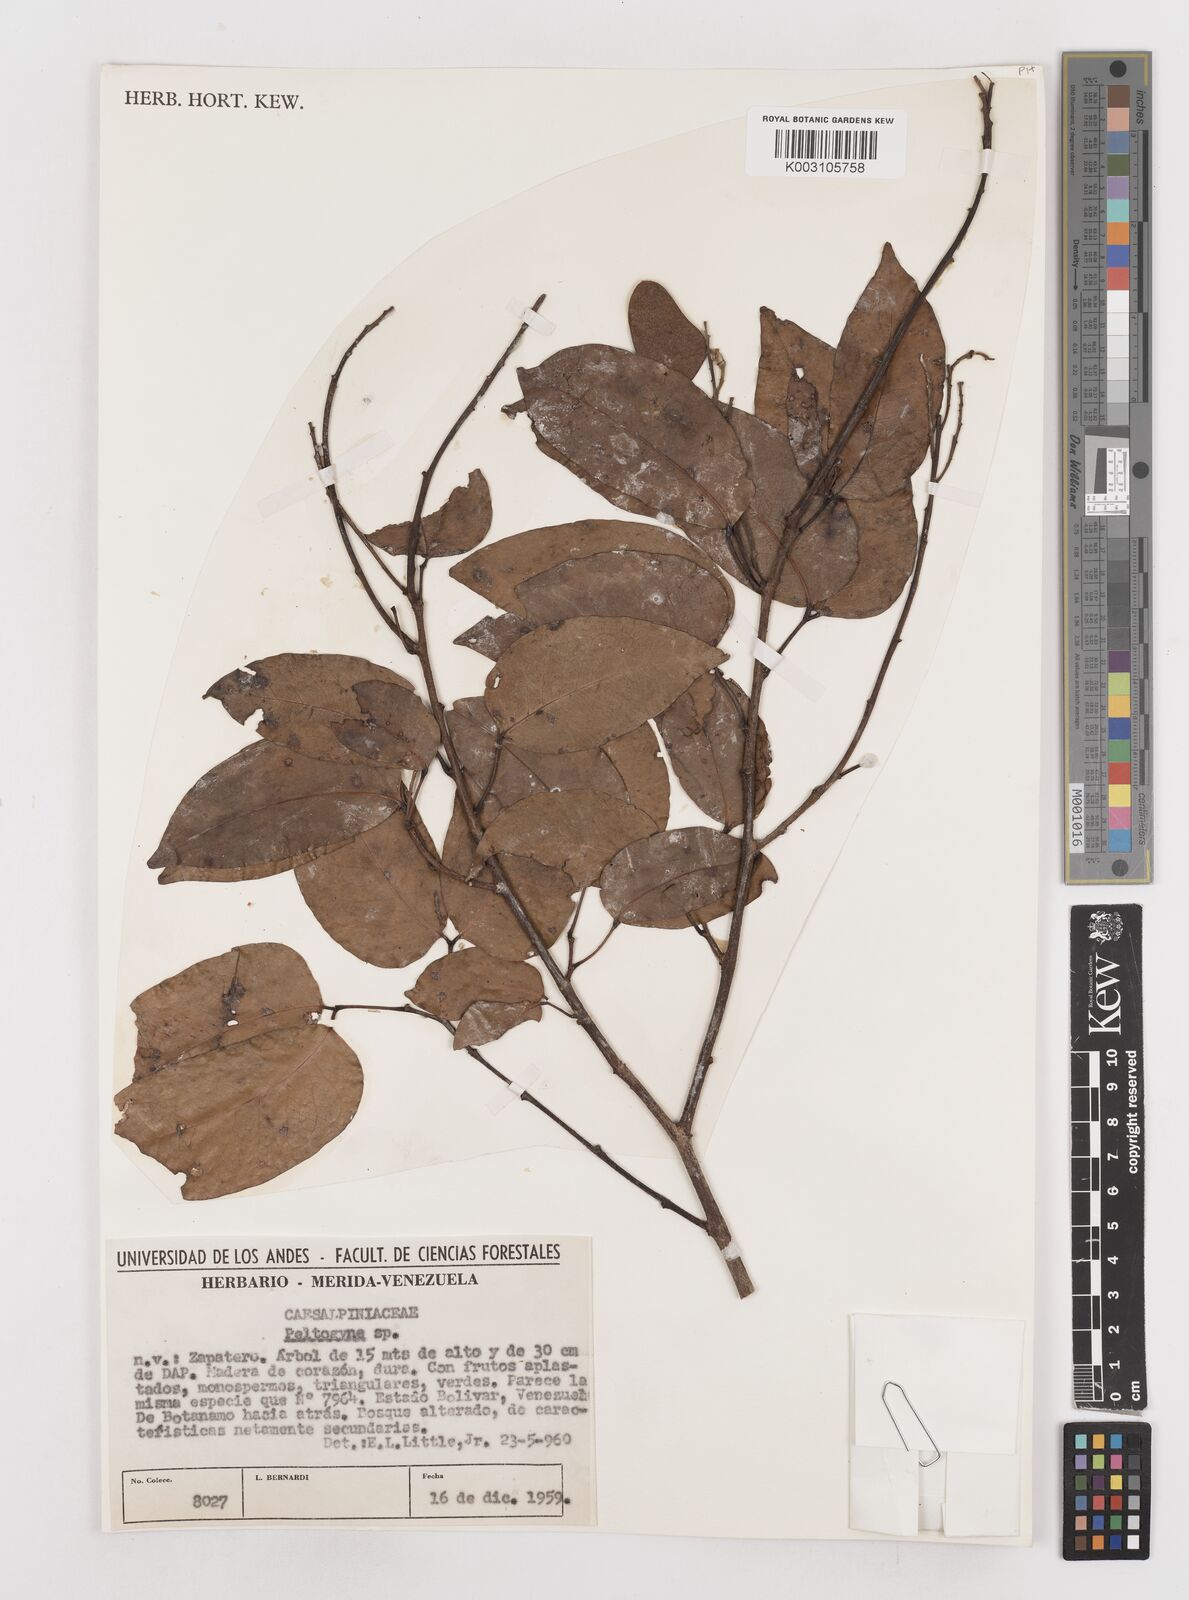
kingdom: Plantae
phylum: Tracheophyta
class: Magnoliopsida
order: Fabales
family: Fabaceae
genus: Peltogyne
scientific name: Peltogyne
